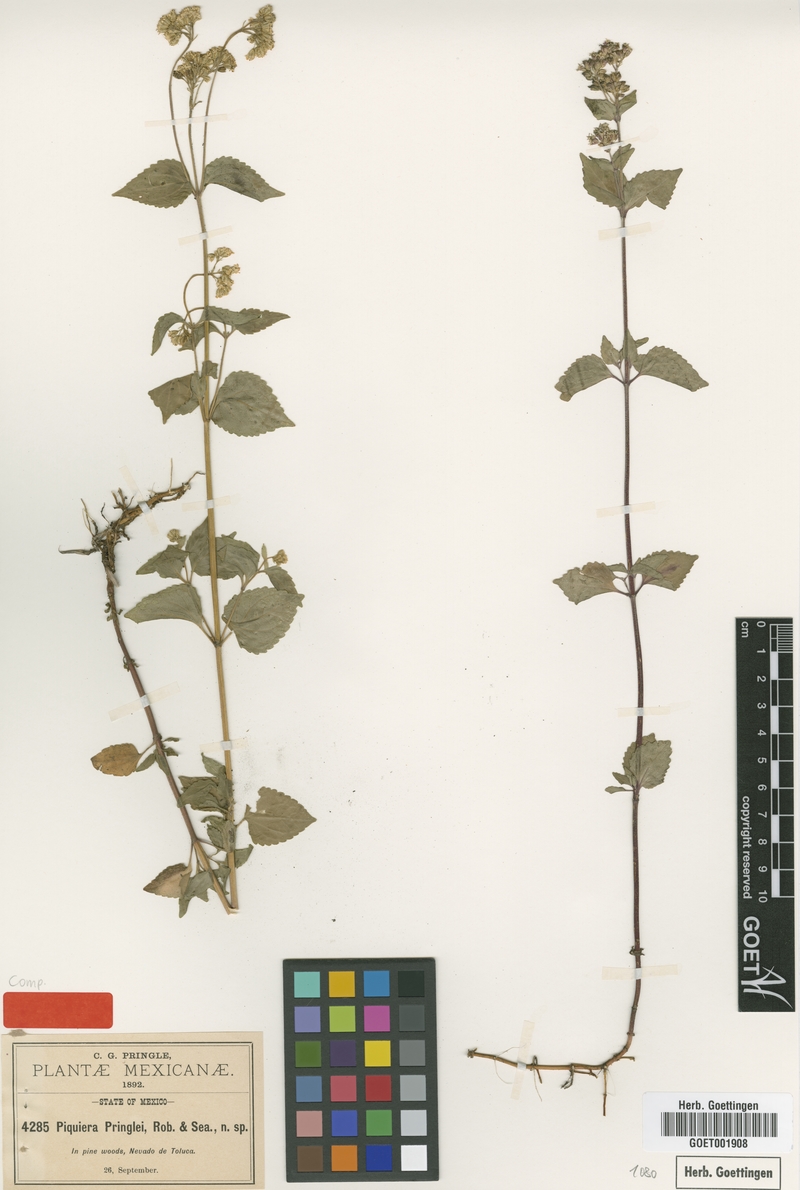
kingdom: Plantae
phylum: Tracheophyta
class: Magnoliopsida
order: Asterales
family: Asteraceae
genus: Piqueria
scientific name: Piqueria pilosa
